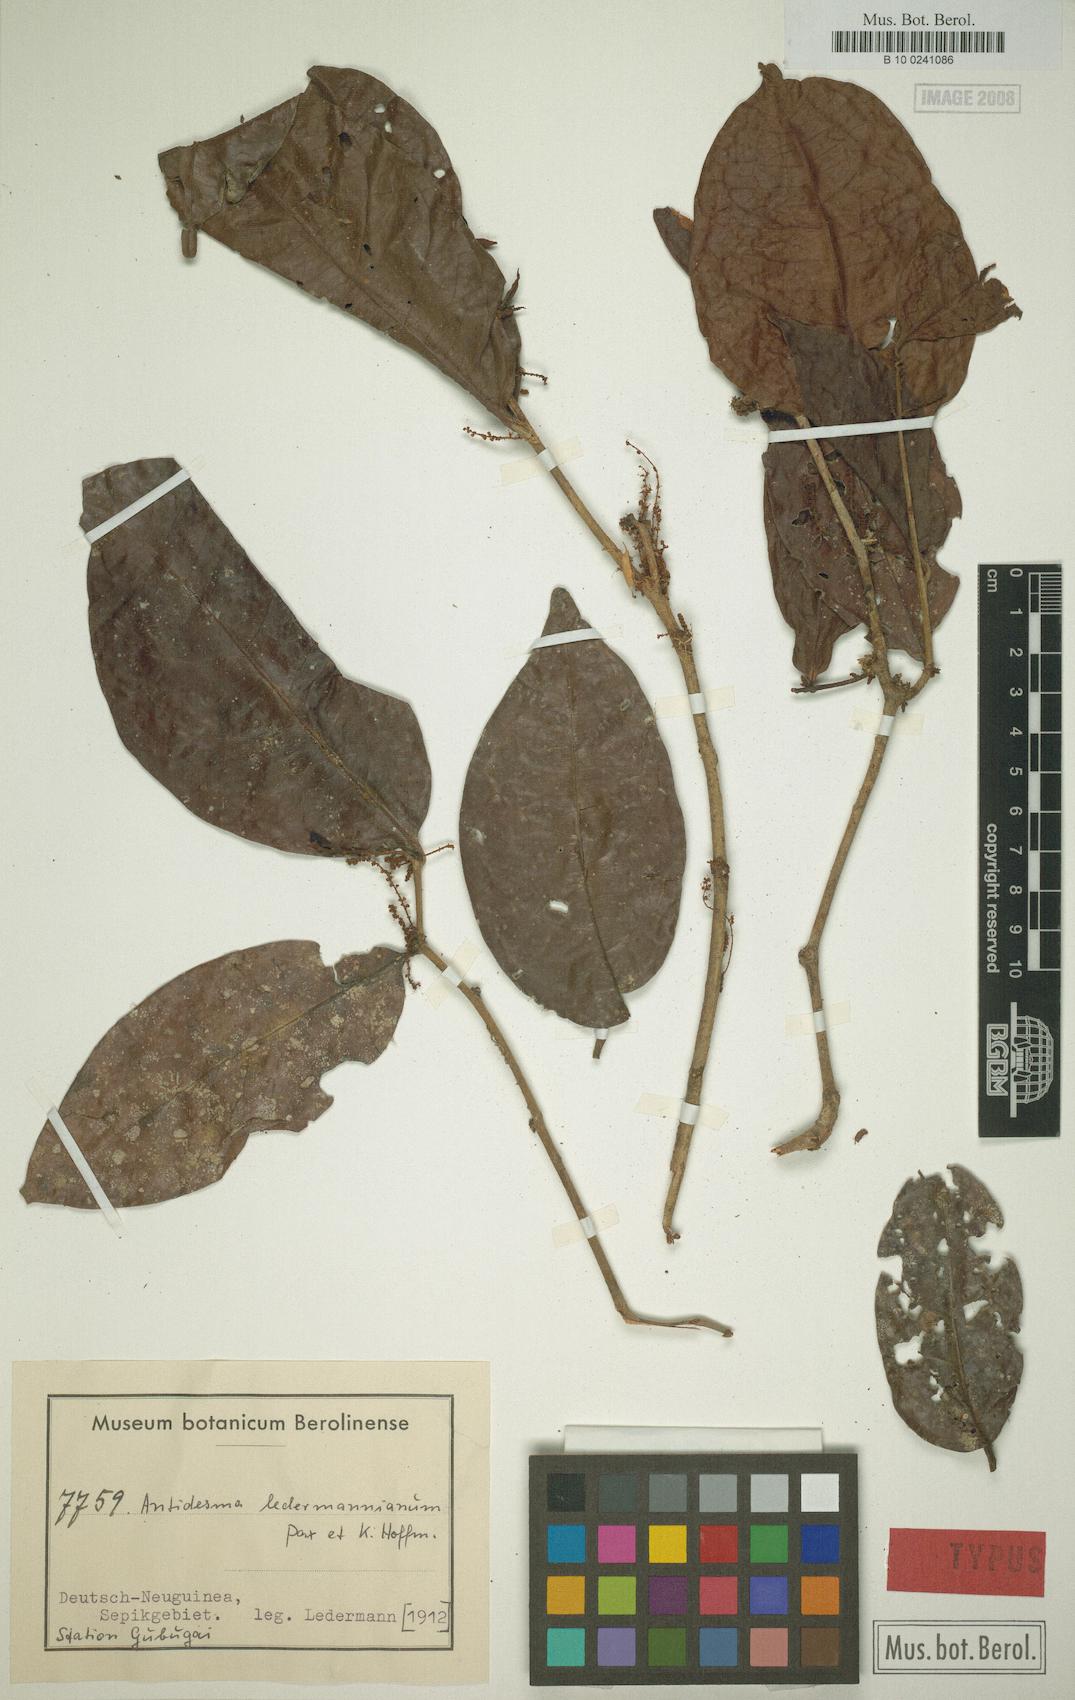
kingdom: Plantae
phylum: Tracheophyta
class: Magnoliopsida
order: Malpighiales
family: Phyllanthaceae
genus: Antidesma
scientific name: Antidesma contractum
